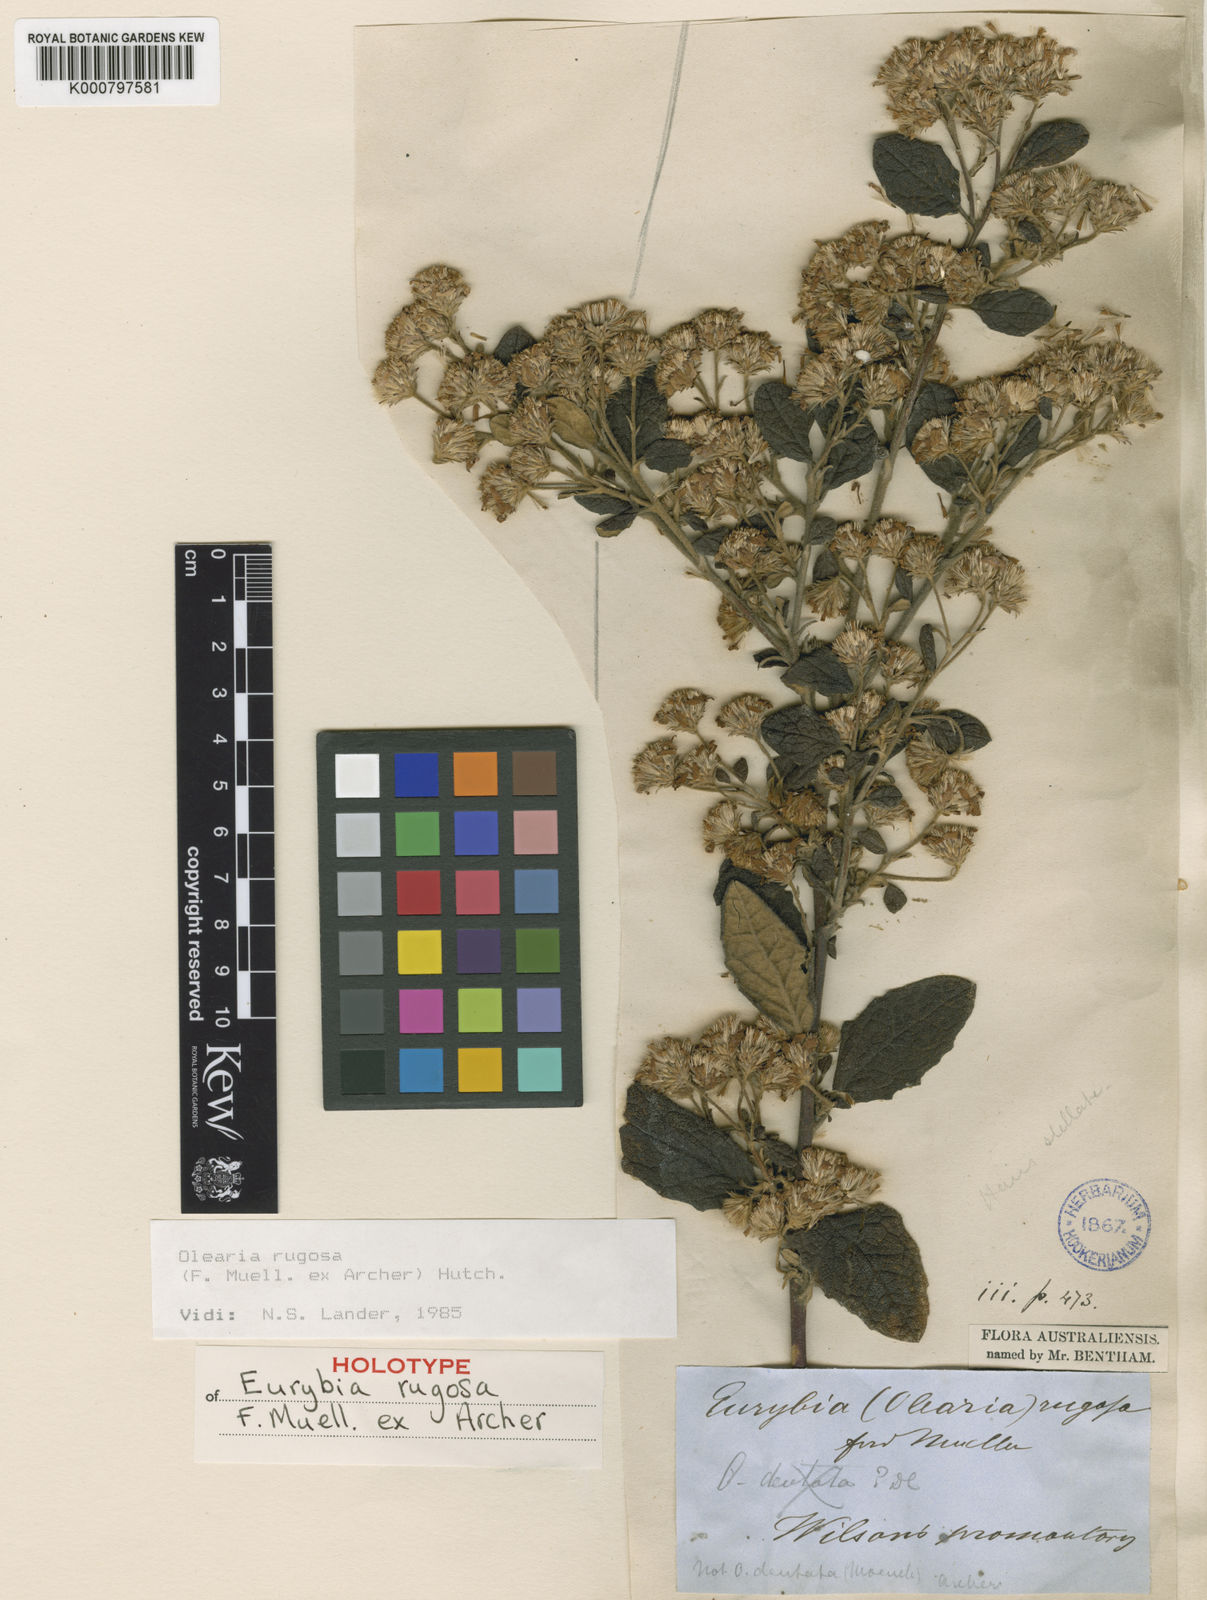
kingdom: Plantae
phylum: Tracheophyta
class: Magnoliopsida
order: Asterales
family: Asteraceae
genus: Olearia
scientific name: Olearia rugosa
